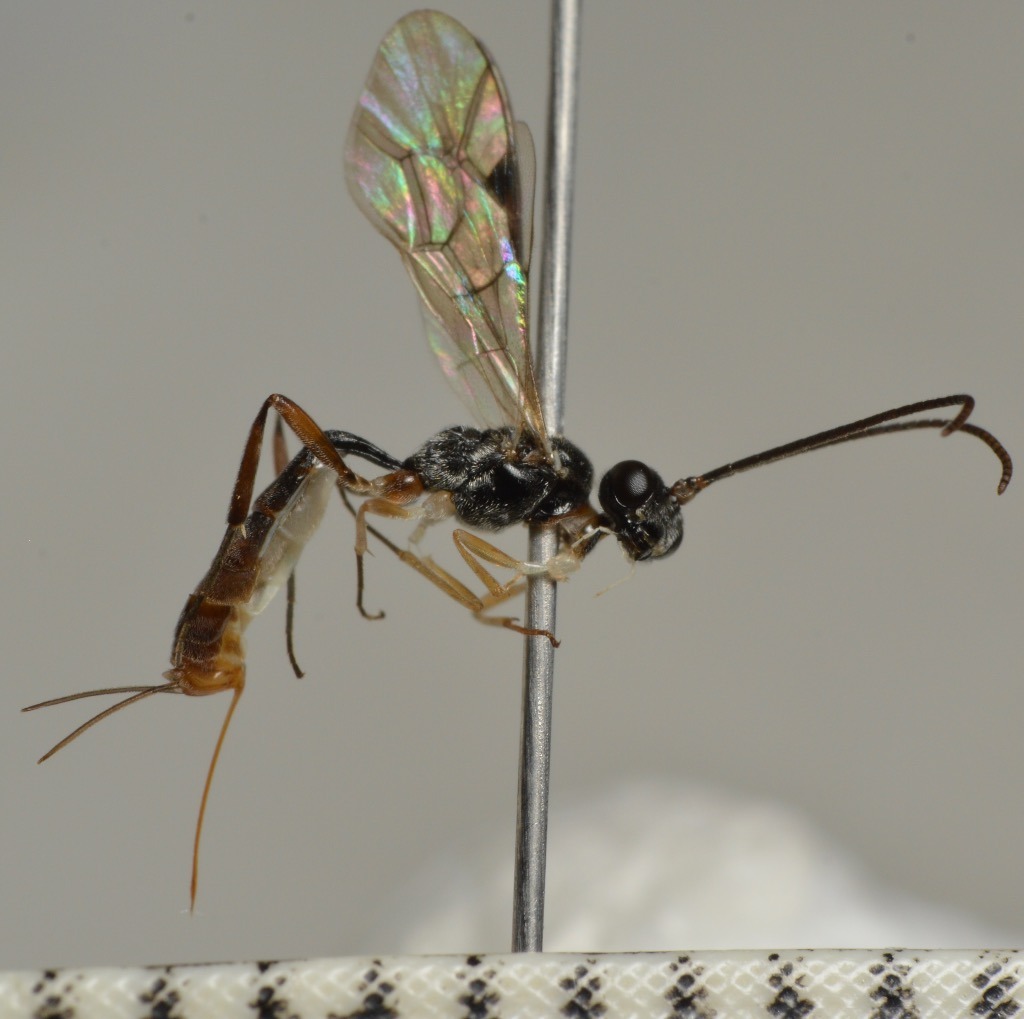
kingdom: Animalia
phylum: Arthropoda
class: Insecta
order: Hymenoptera
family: Ichneumonidae
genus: Bathythrix
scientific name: Bathythrix strigosa
